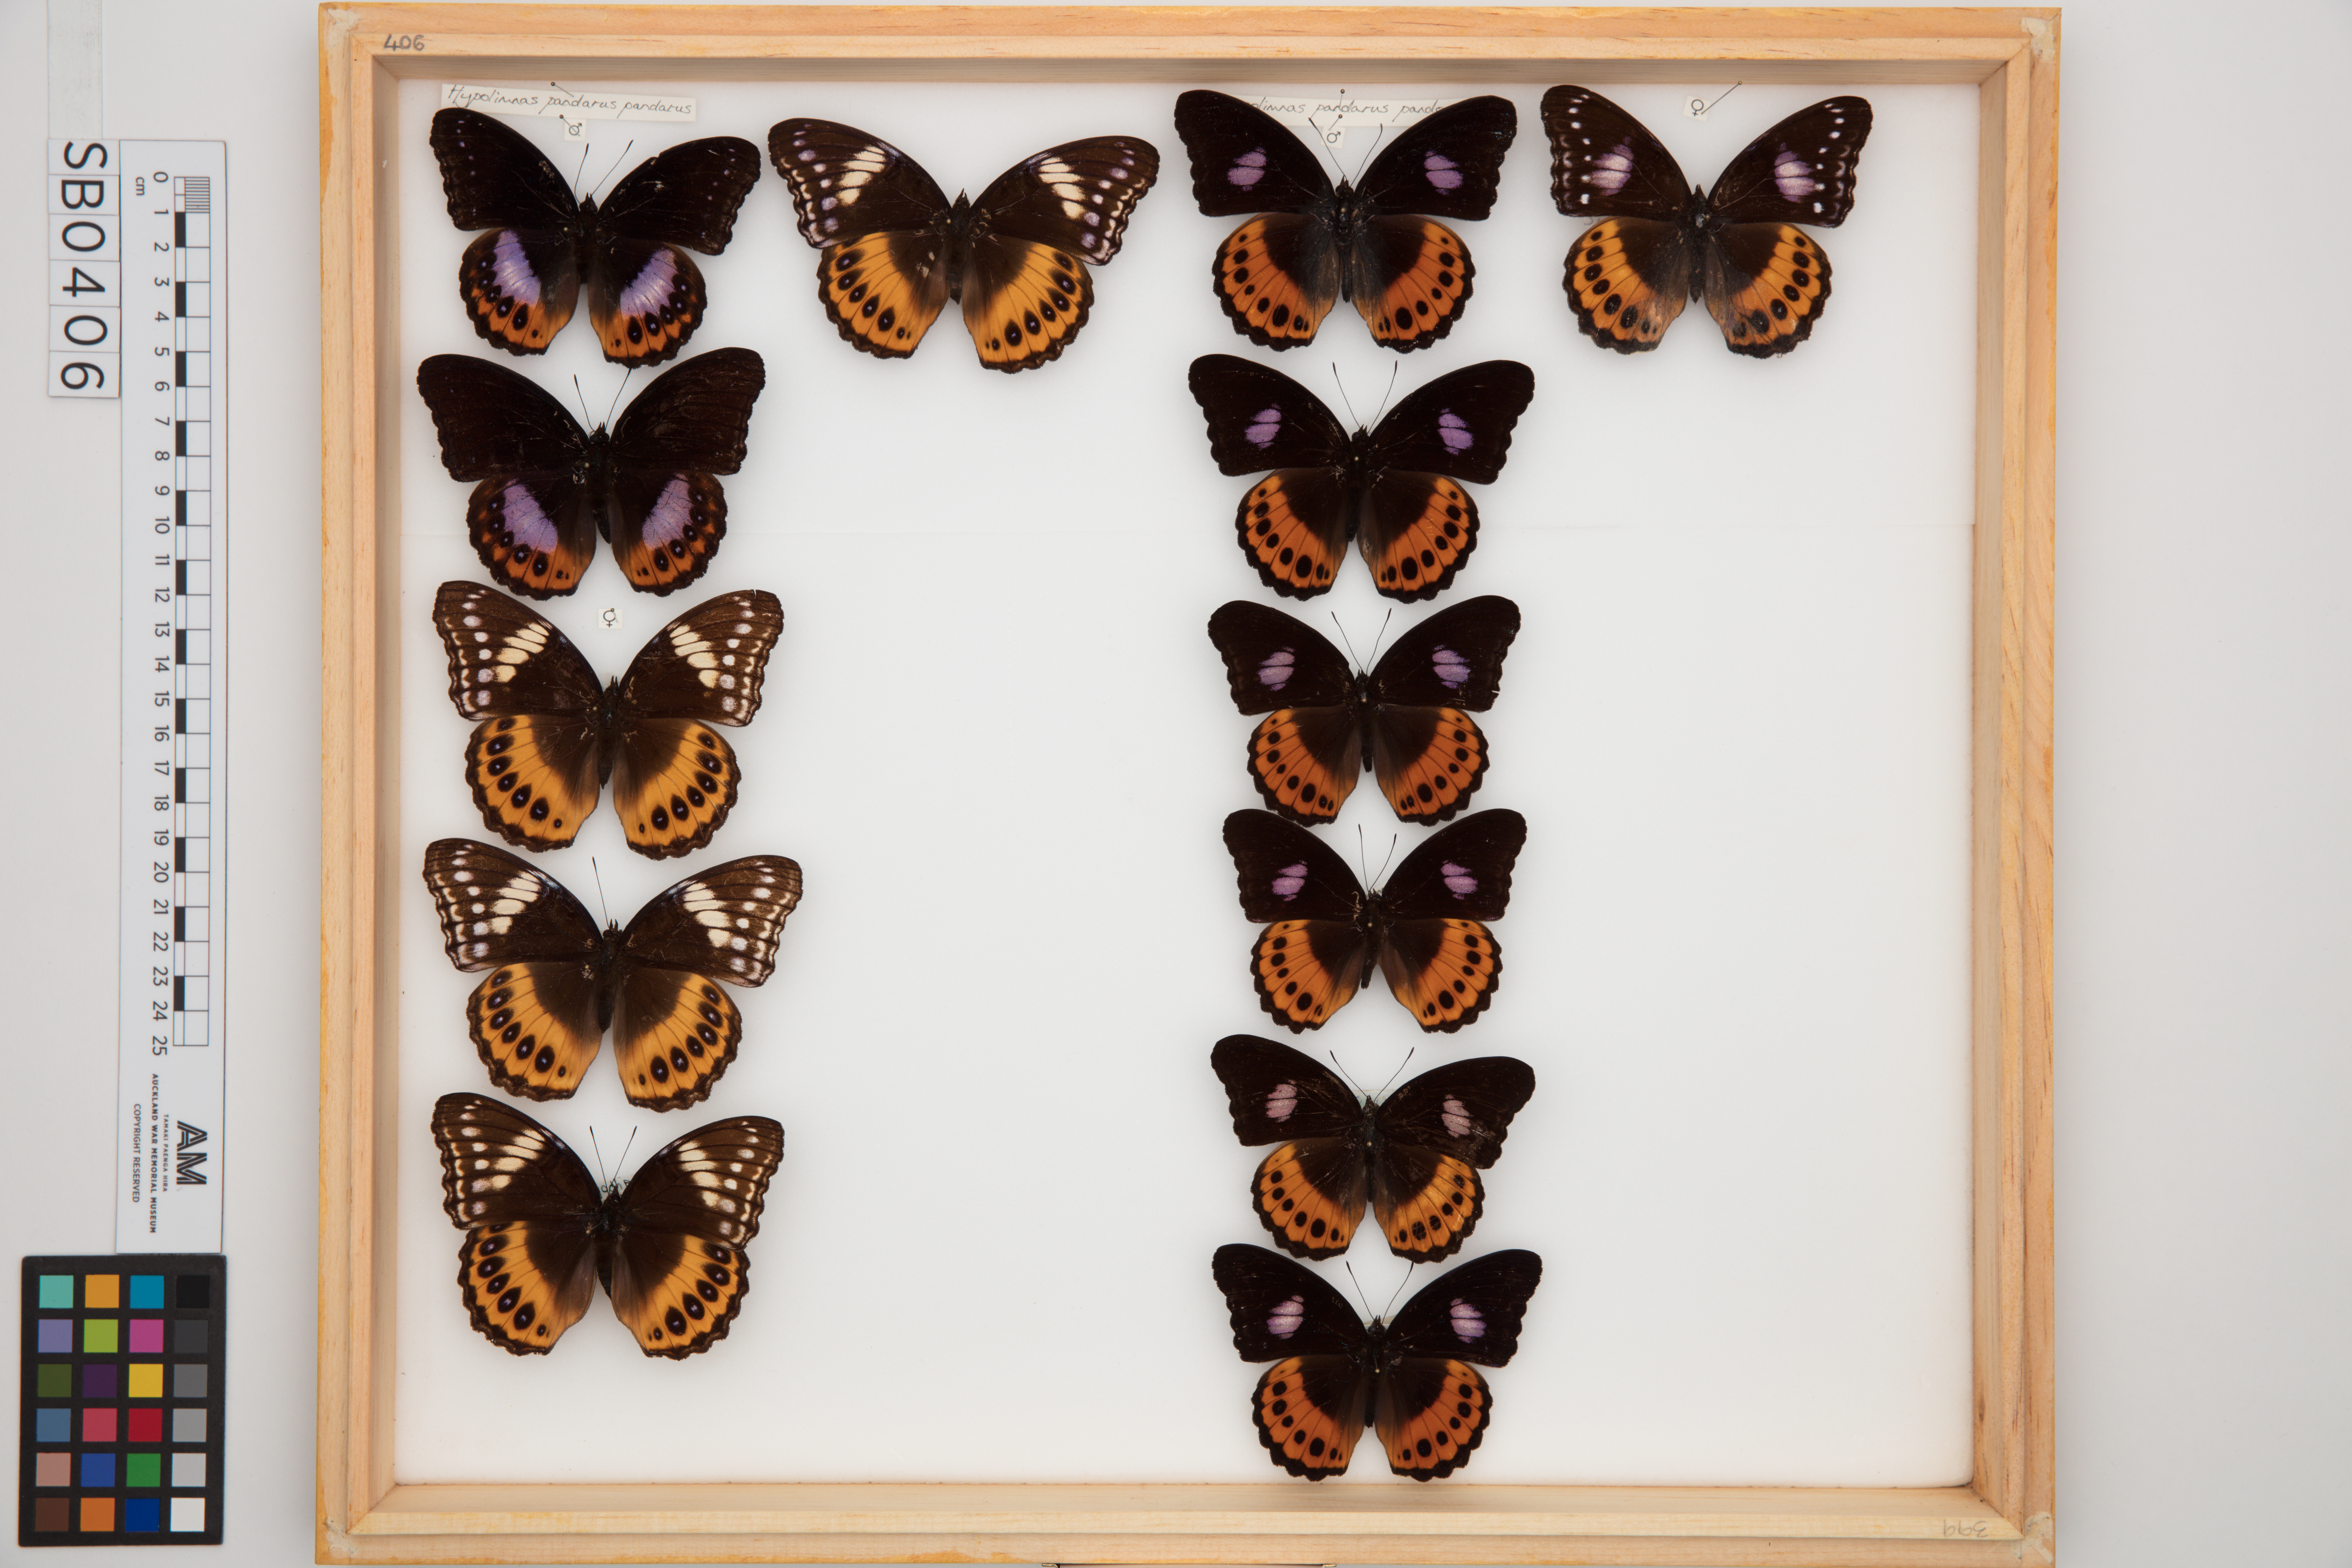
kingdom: Animalia
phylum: Arthropoda
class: Insecta
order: Lepidoptera
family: Nymphalidae
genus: Hypolimnas
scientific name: Hypolimnas pandarus
